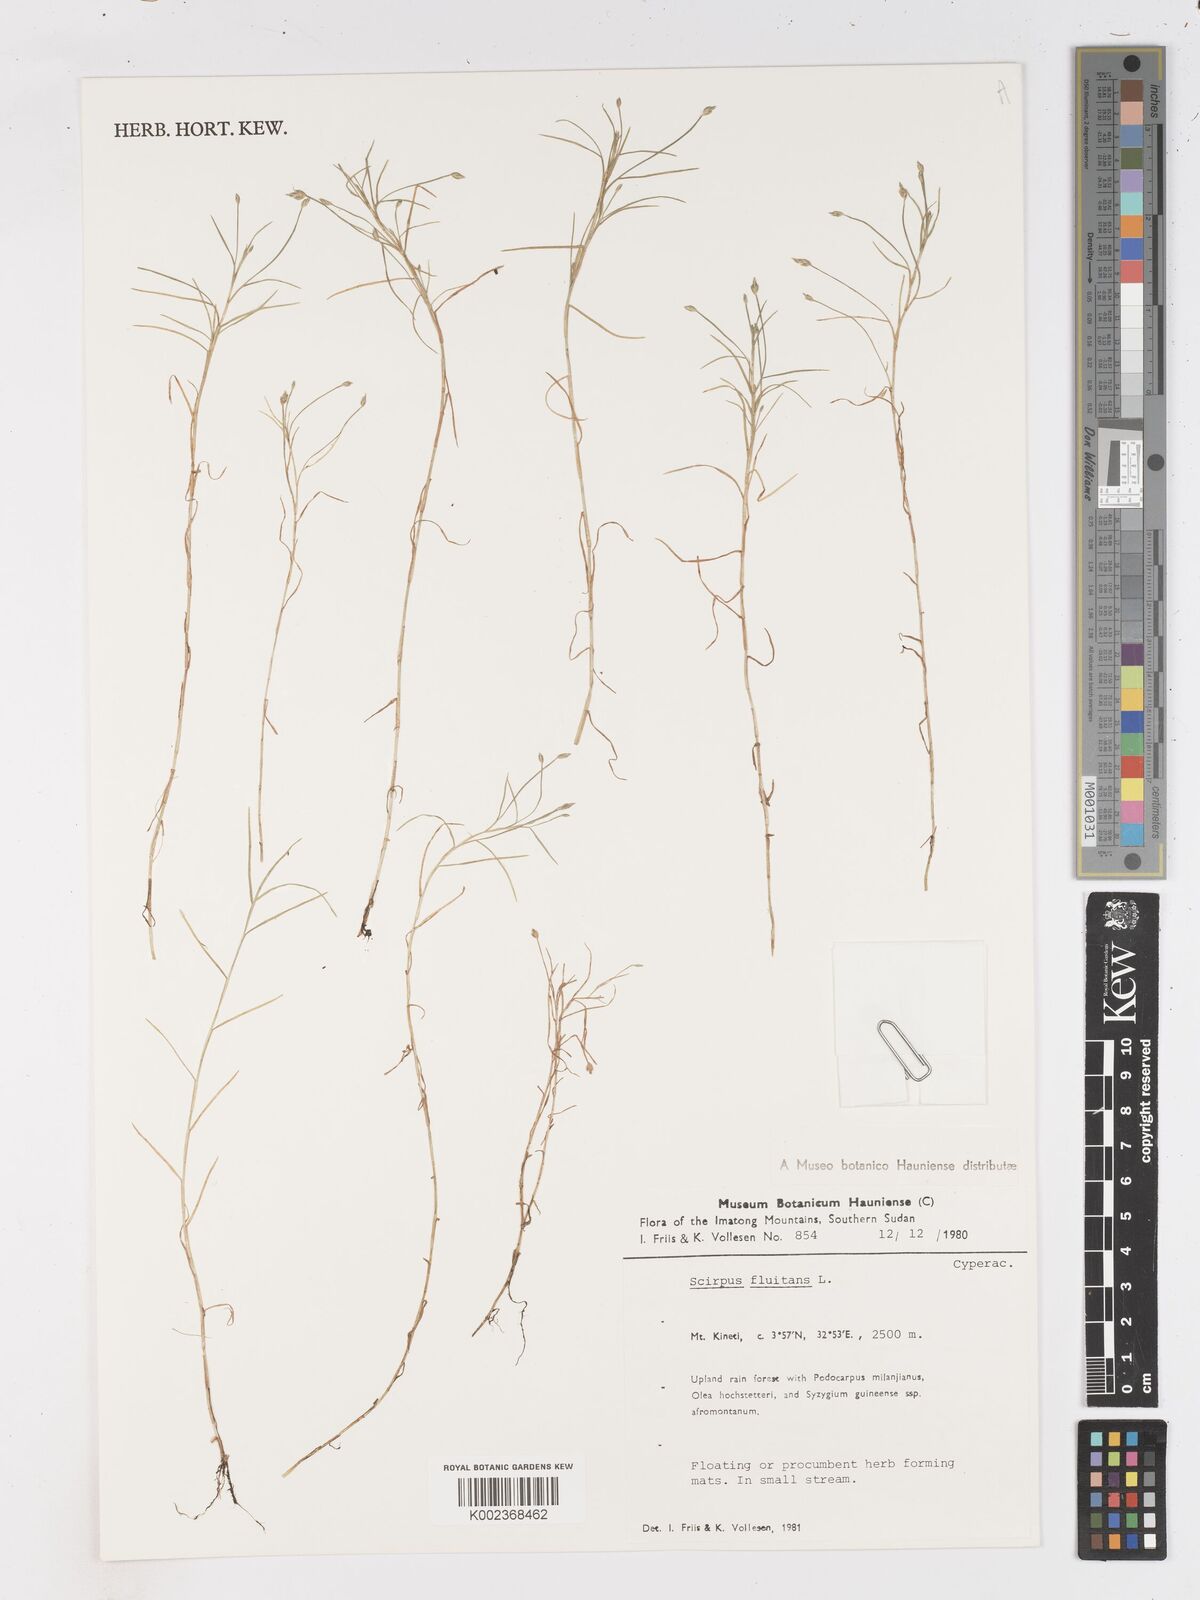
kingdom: Plantae
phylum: Tracheophyta
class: Liliopsida
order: Poales
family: Cyperaceae
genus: Isolepis
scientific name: Isolepis fluitans
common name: Floating club-rush
